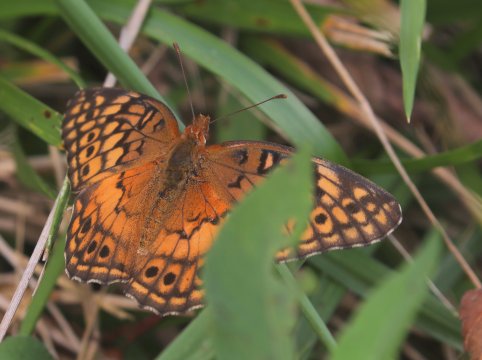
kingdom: Animalia
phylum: Arthropoda
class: Insecta
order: Lepidoptera
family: Nymphalidae
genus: Euptoieta
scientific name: Euptoieta claudia
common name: Variegated Fritillary
